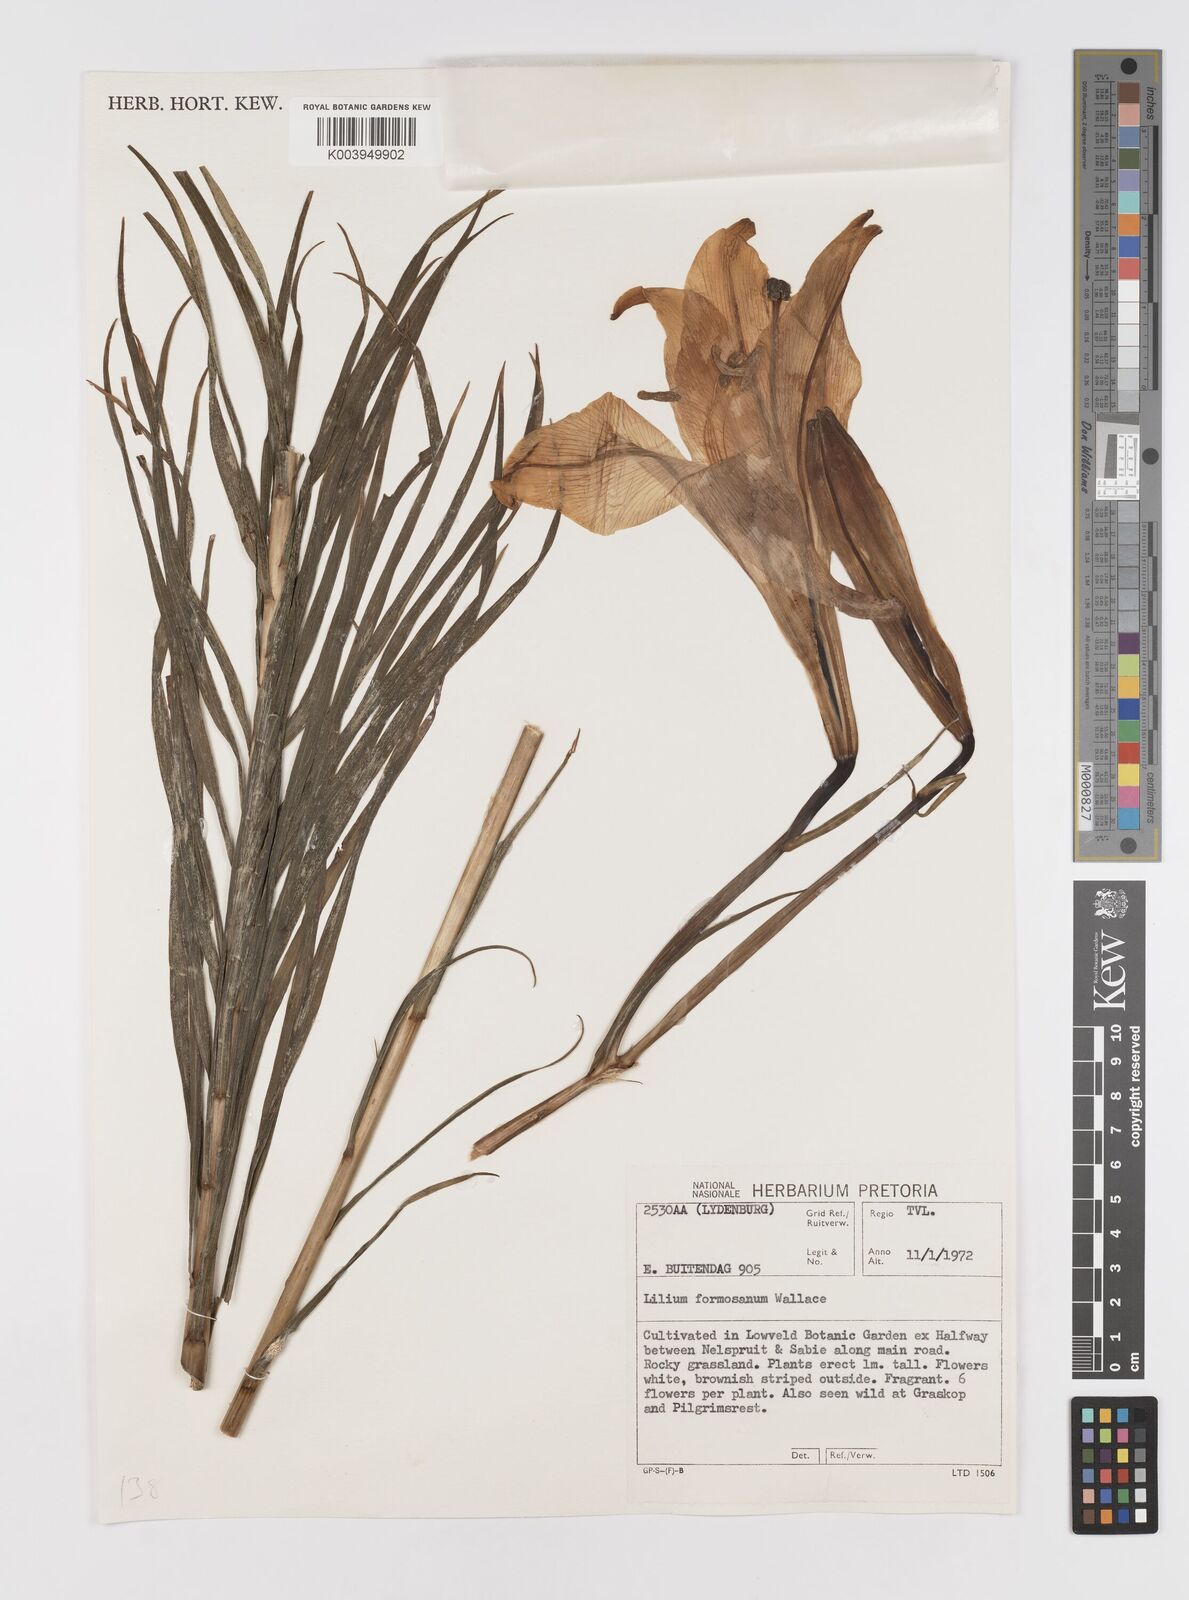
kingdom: Plantae
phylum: Tracheophyta
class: Liliopsida
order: Liliales
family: Liliaceae
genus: Lilium
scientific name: Lilium philippinense
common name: Philippine lily
